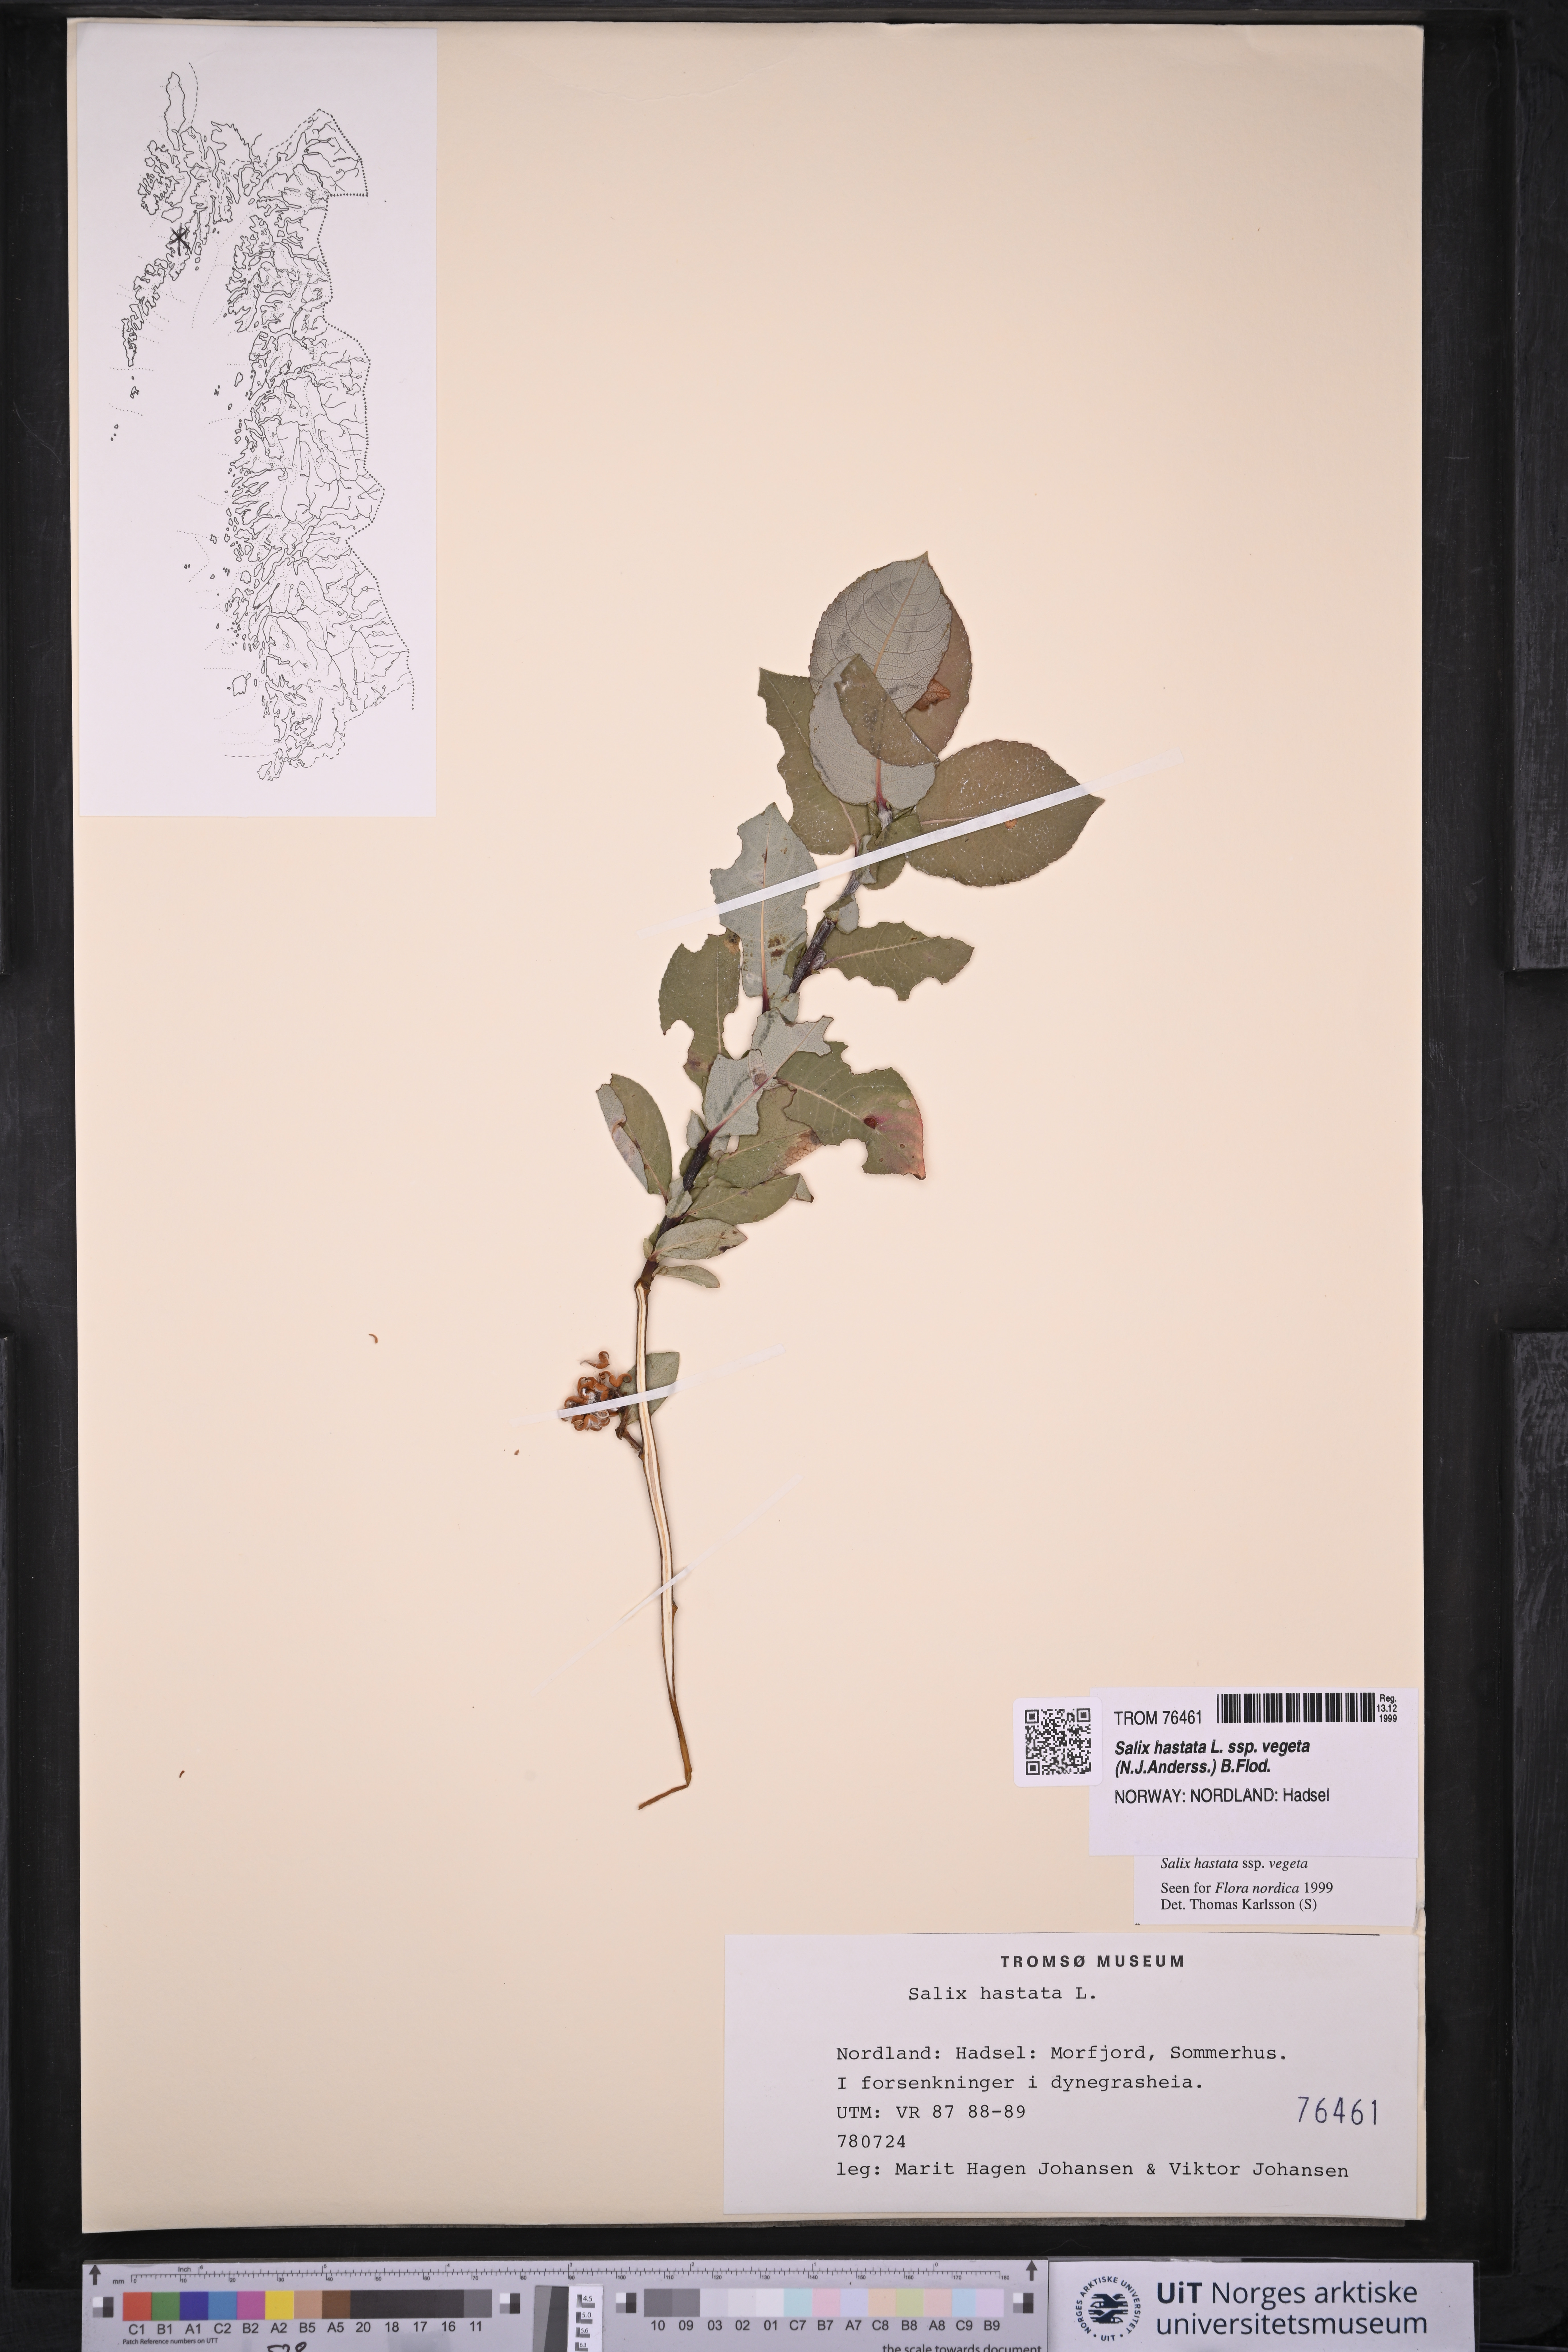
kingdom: Plantae
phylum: Tracheophyta
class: Magnoliopsida
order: Malpighiales
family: Salicaceae
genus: Salix
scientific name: Salix hastata
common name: Halberd willow
